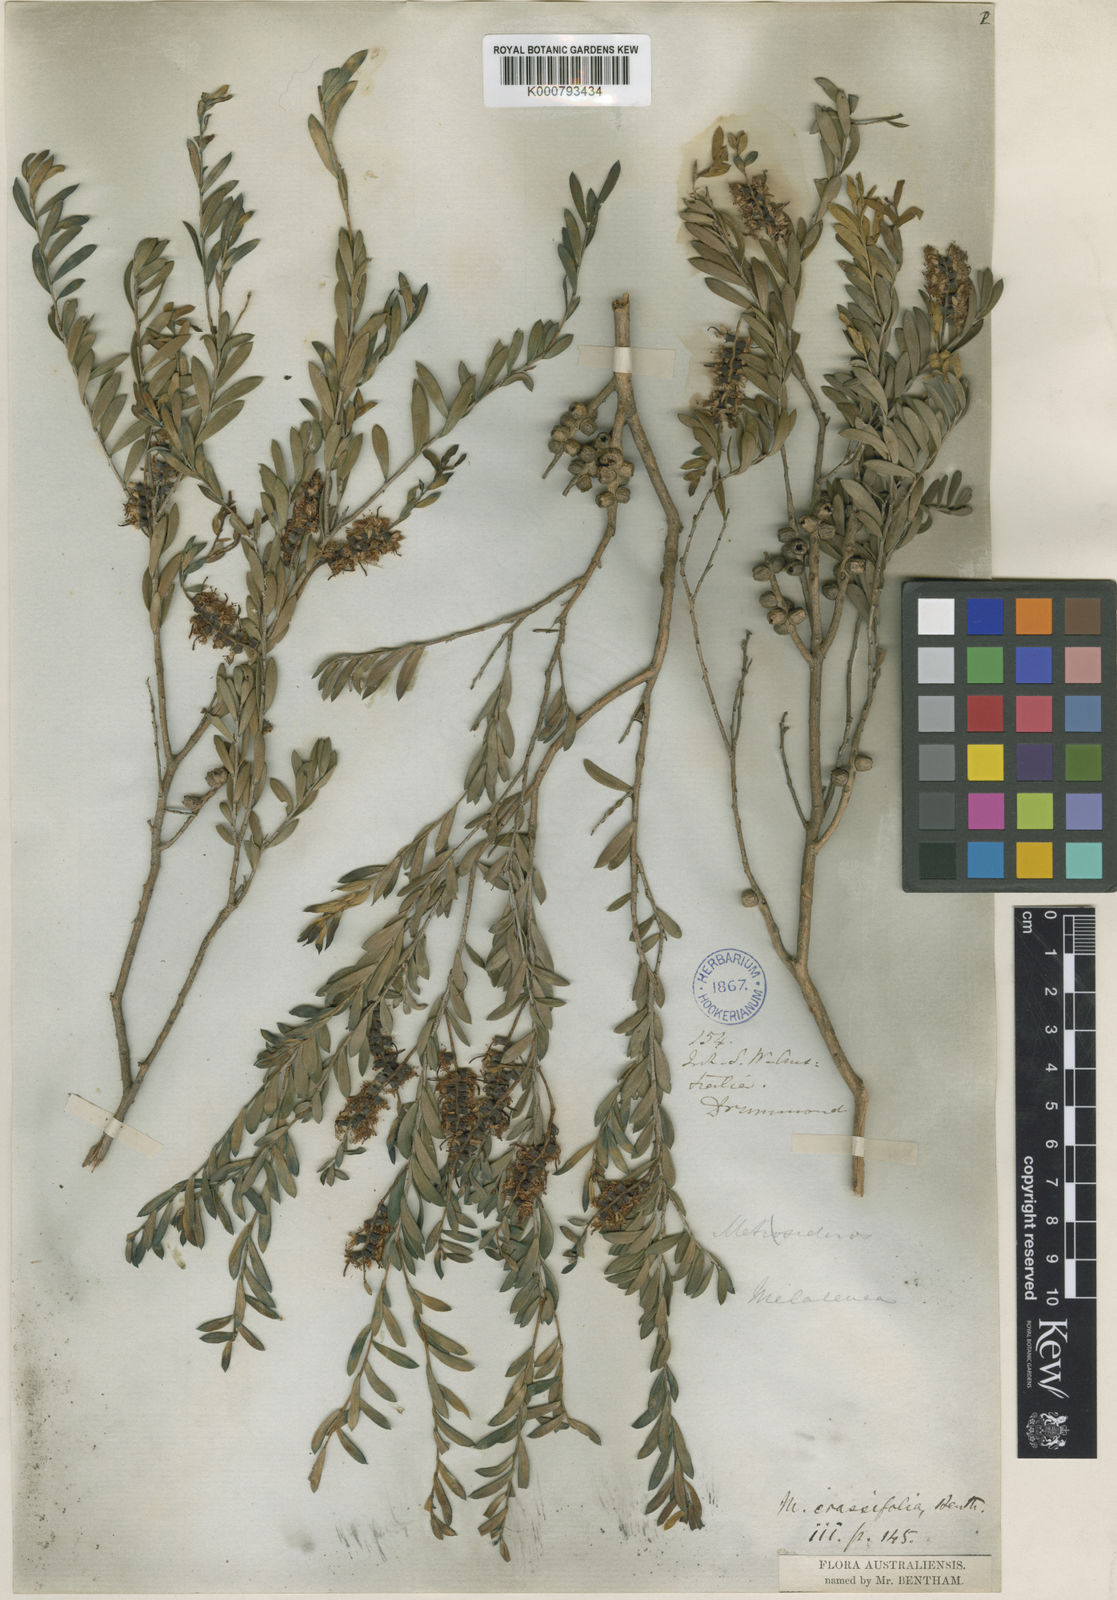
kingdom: Plantae
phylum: Tracheophyta
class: Magnoliopsida
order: Myrtales
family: Myrtaceae
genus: Melaleuca
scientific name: Melaleuca laxiflora
